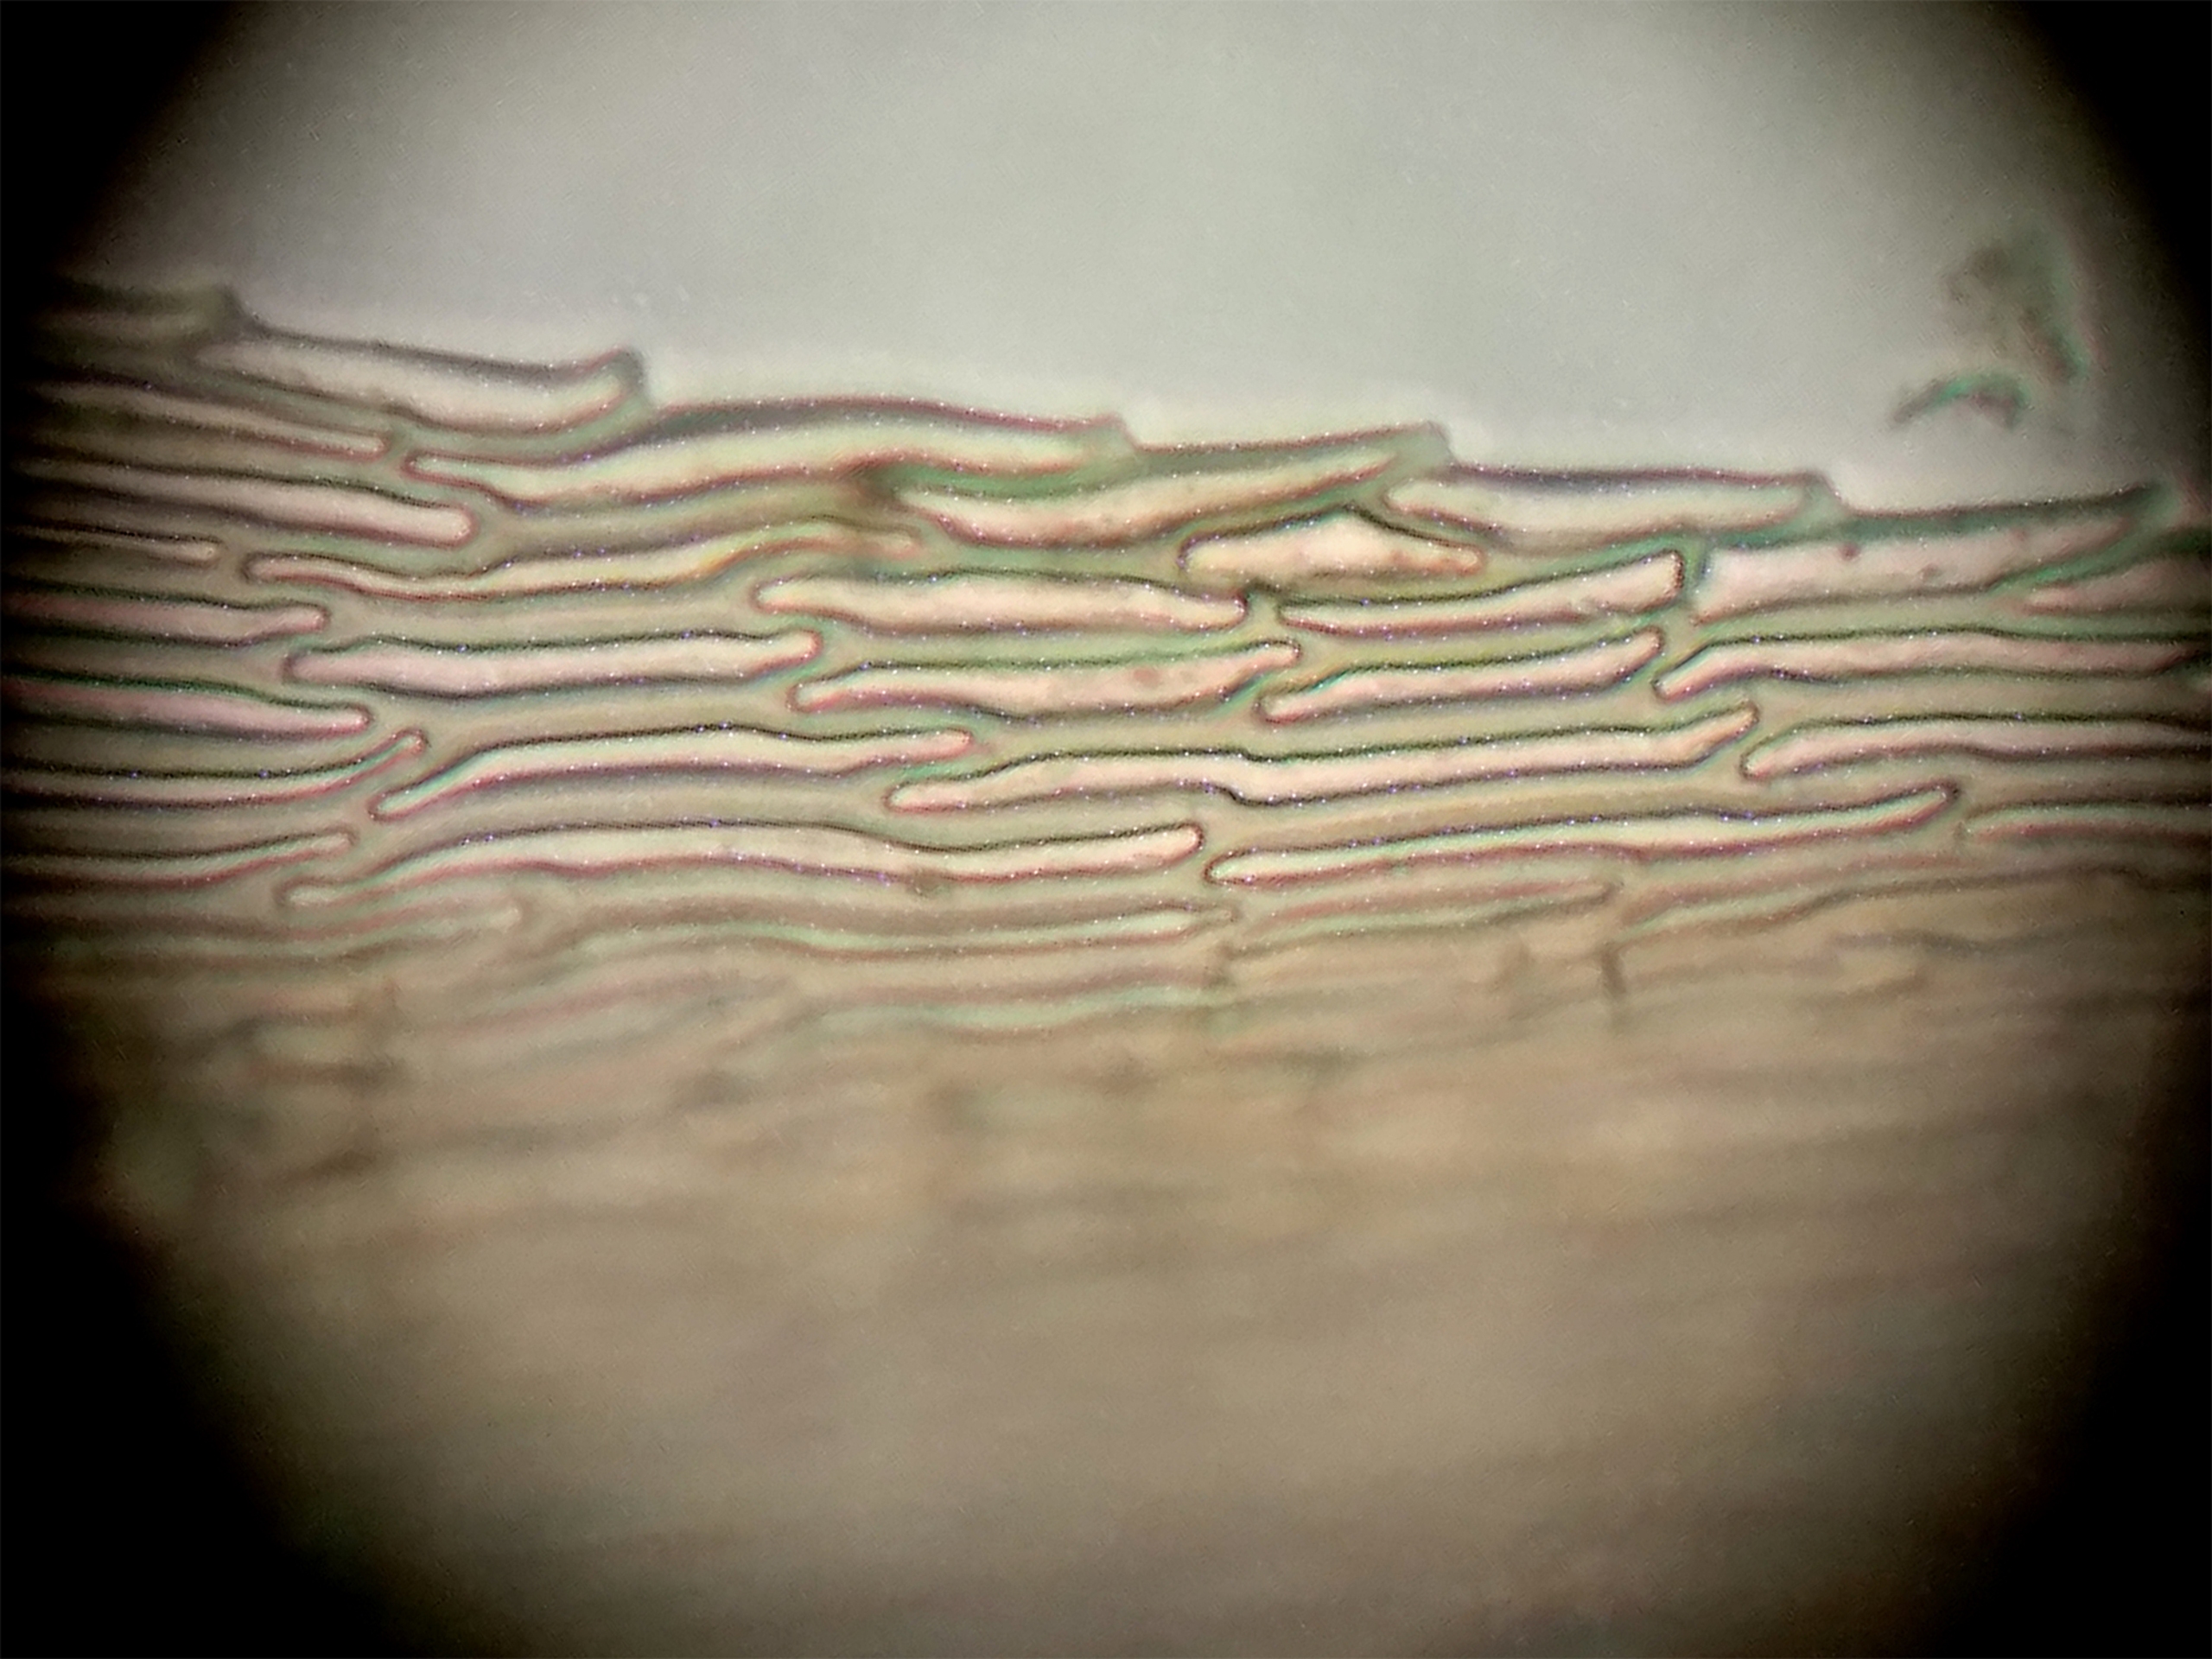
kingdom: Plantae
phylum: Bryophyta
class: Bryopsida
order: Hypnales
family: Calliergonaceae
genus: Sarmentypnum
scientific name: Sarmentypnum exannulatum
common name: Rødlig bueblad
